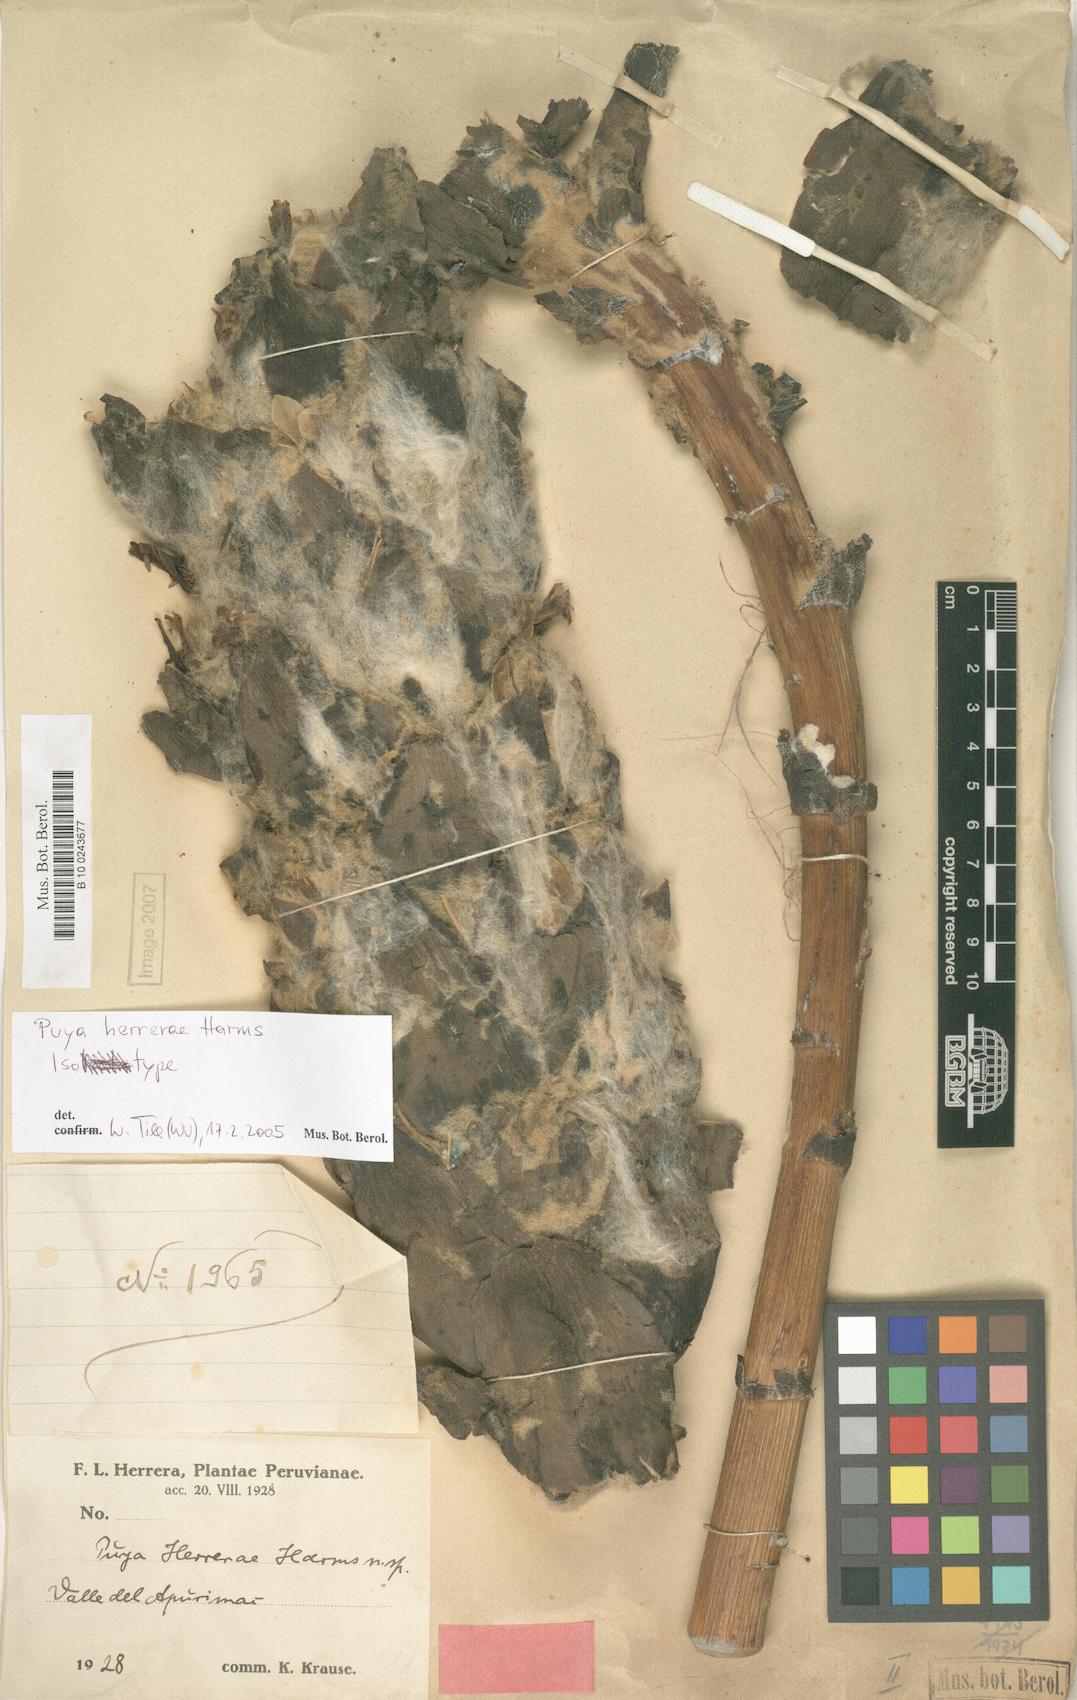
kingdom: Plantae
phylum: Tracheophyta
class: Liliopsida
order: Poales
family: Bromeliaceae
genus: Puya
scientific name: Puya herrerae
